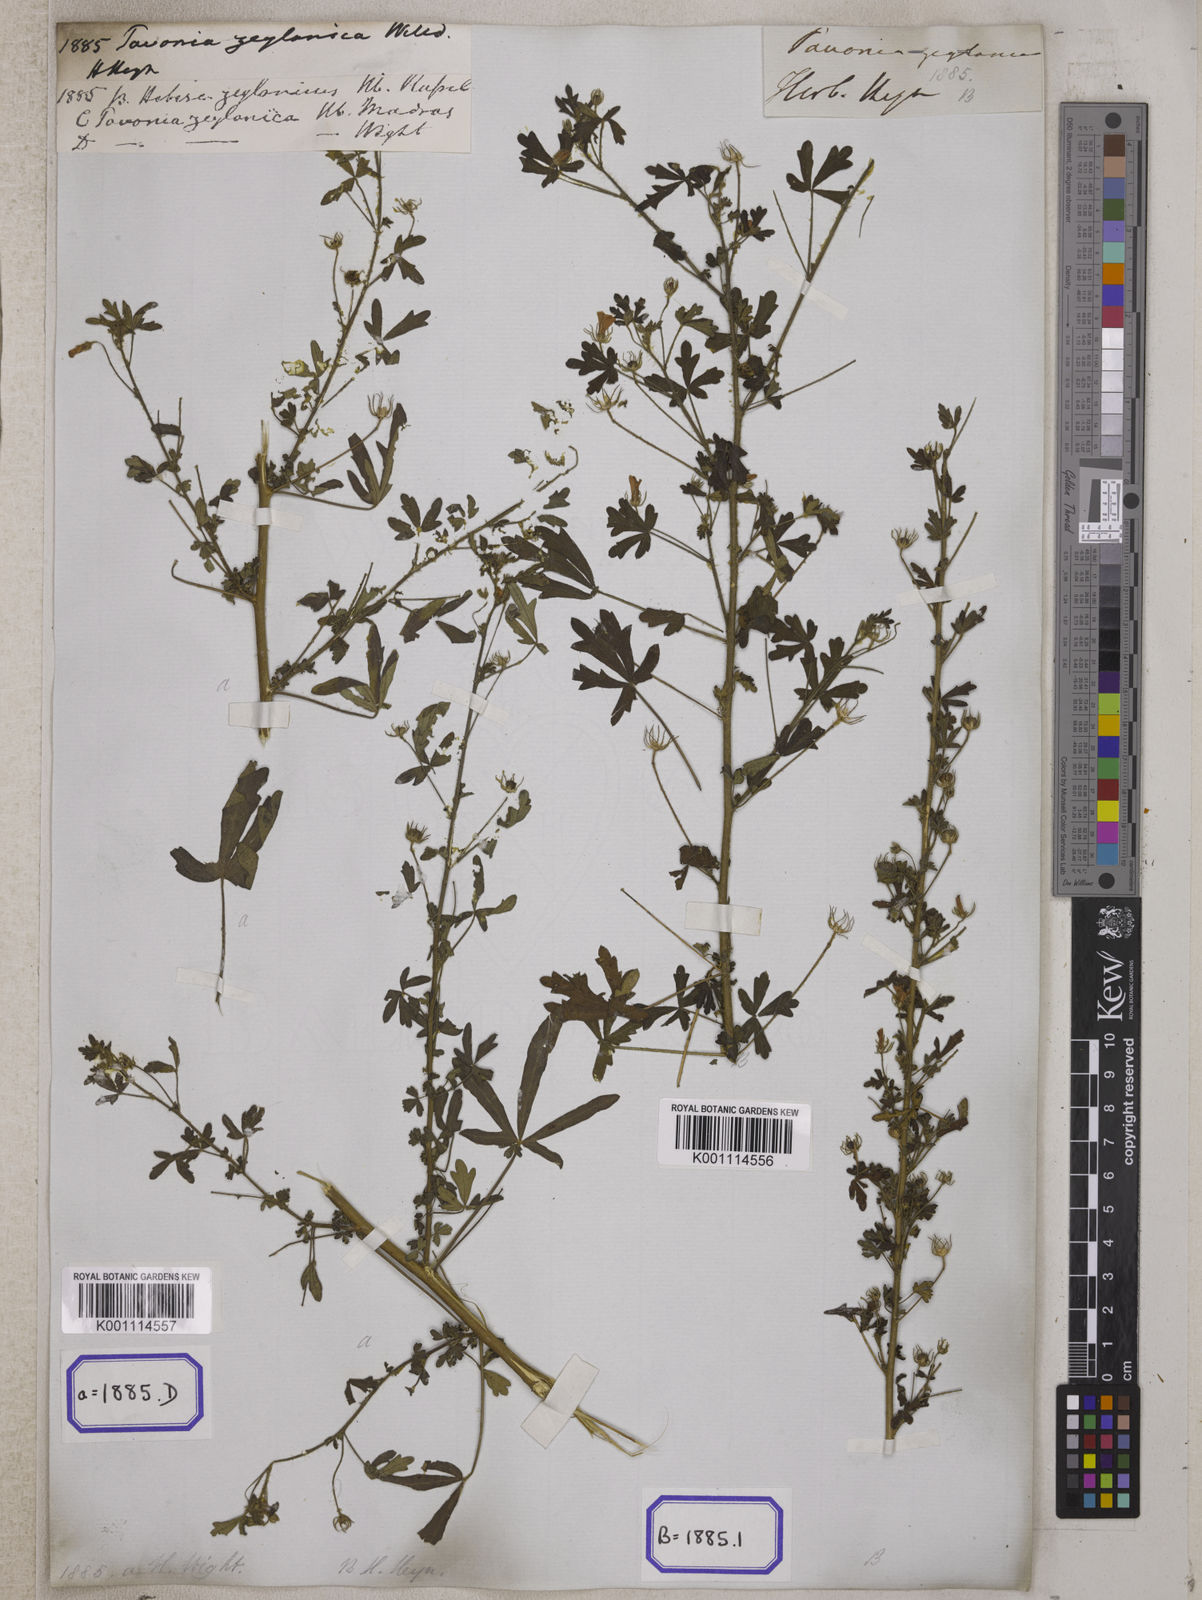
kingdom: Plantae
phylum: Tracheophyta
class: Magnoliopsida
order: Malvales
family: Malvaceae
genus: Pavonia
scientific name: Pavonia
